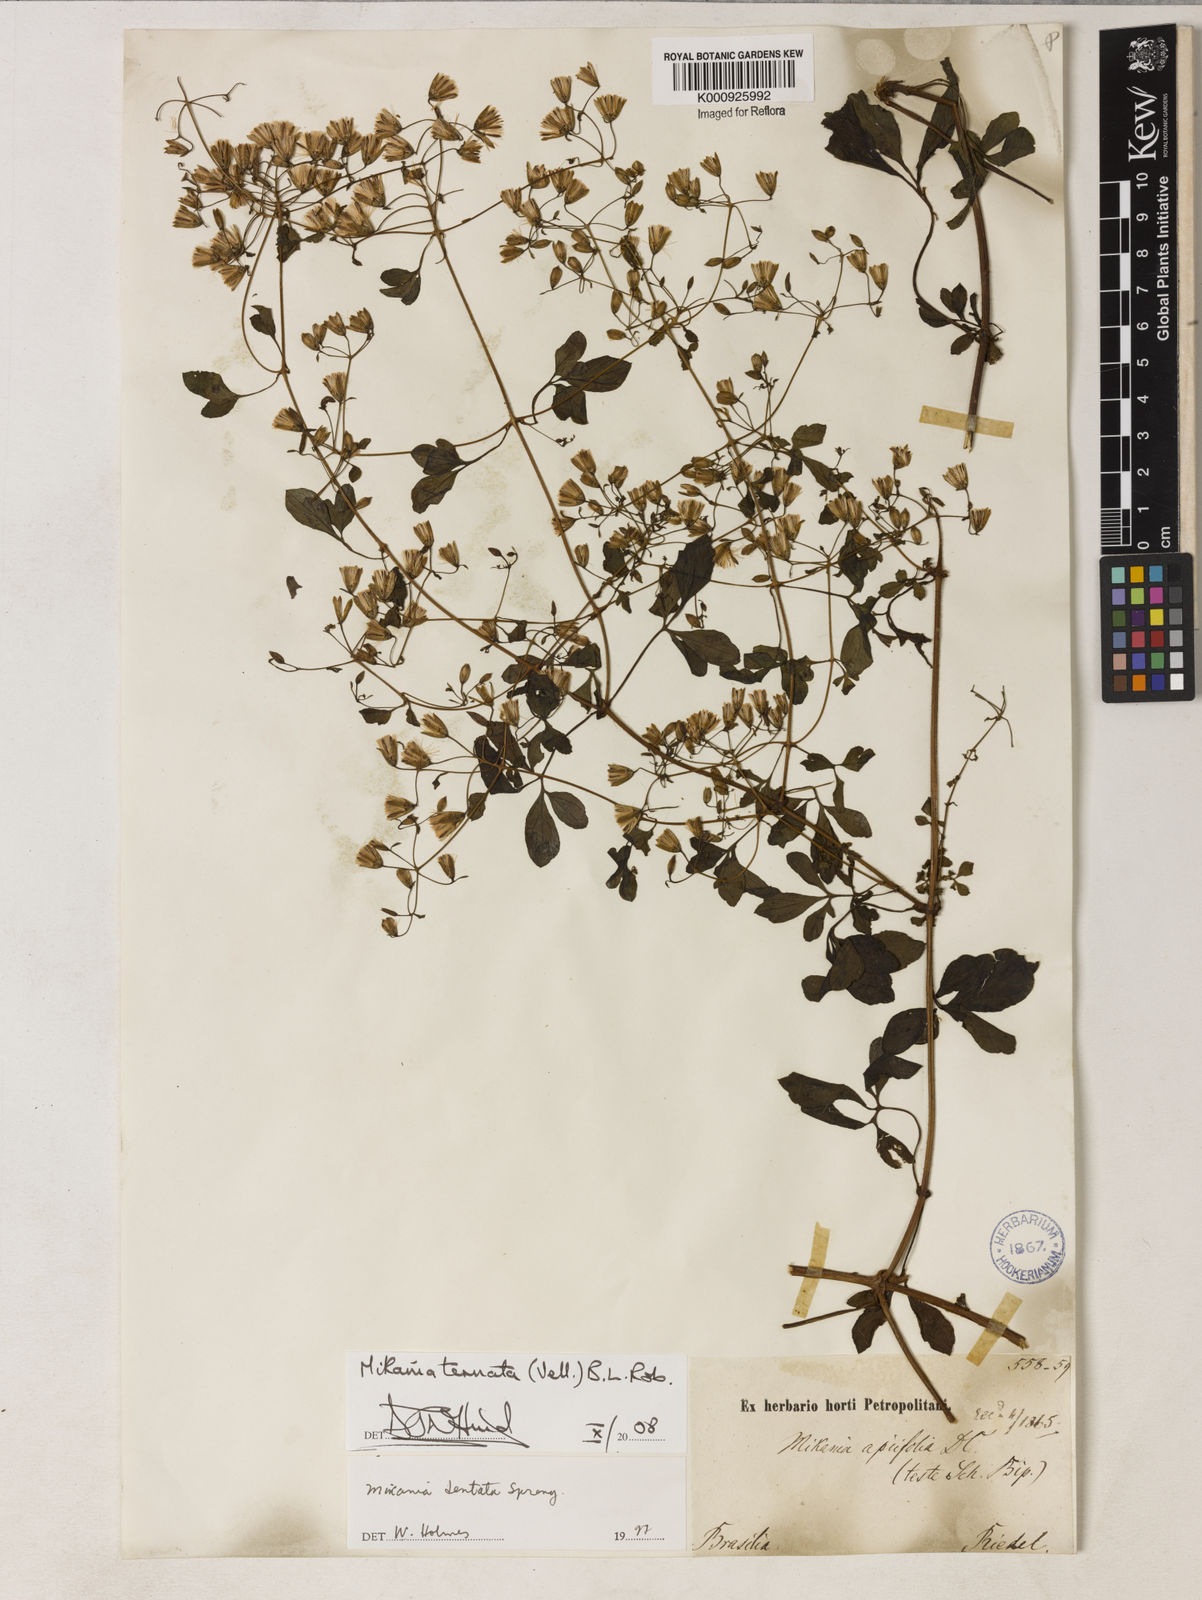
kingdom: Plantae
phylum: Tracheophyta
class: Magnoliopsida
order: Asterales
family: Asteraceae
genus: Mikania
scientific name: Mikania ternata
